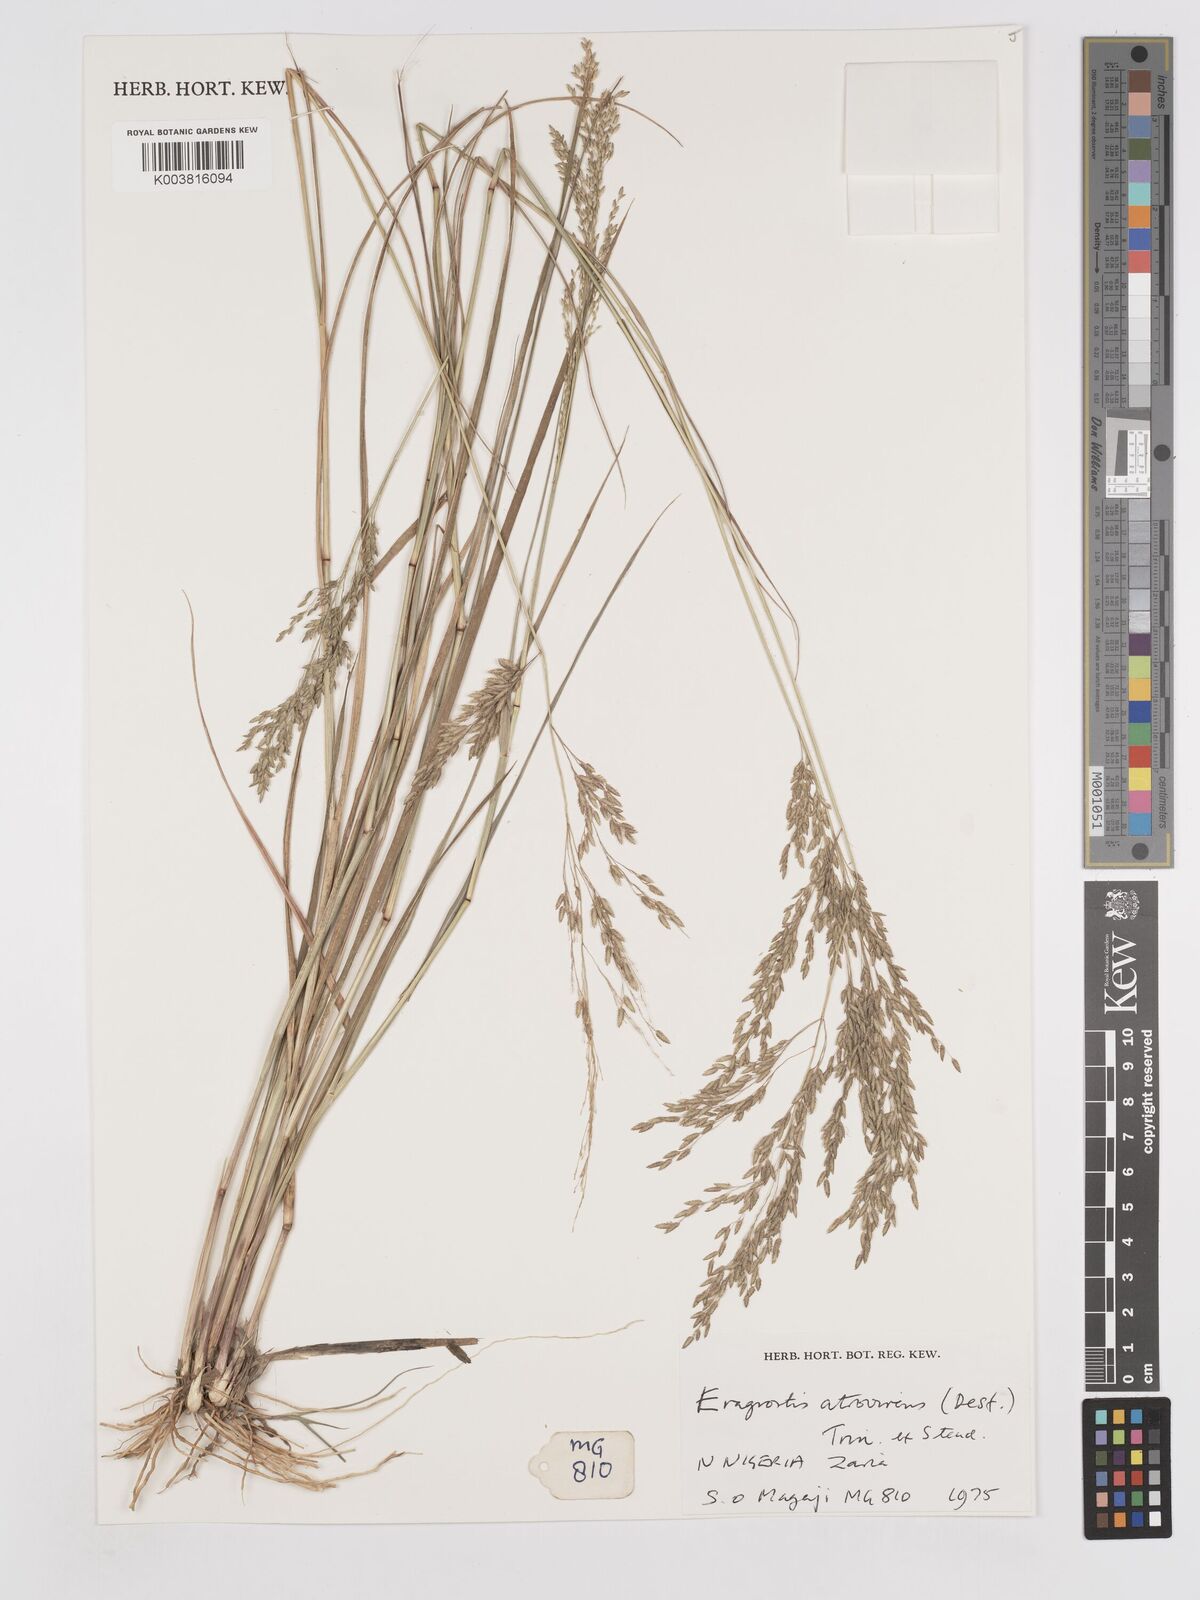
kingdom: Plantae
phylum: Tracheophyta
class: Liliopsida
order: Poales
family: Poaceae
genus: Eragrostis
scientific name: Eragrostis atrovirens
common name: Thalia lovegrass
